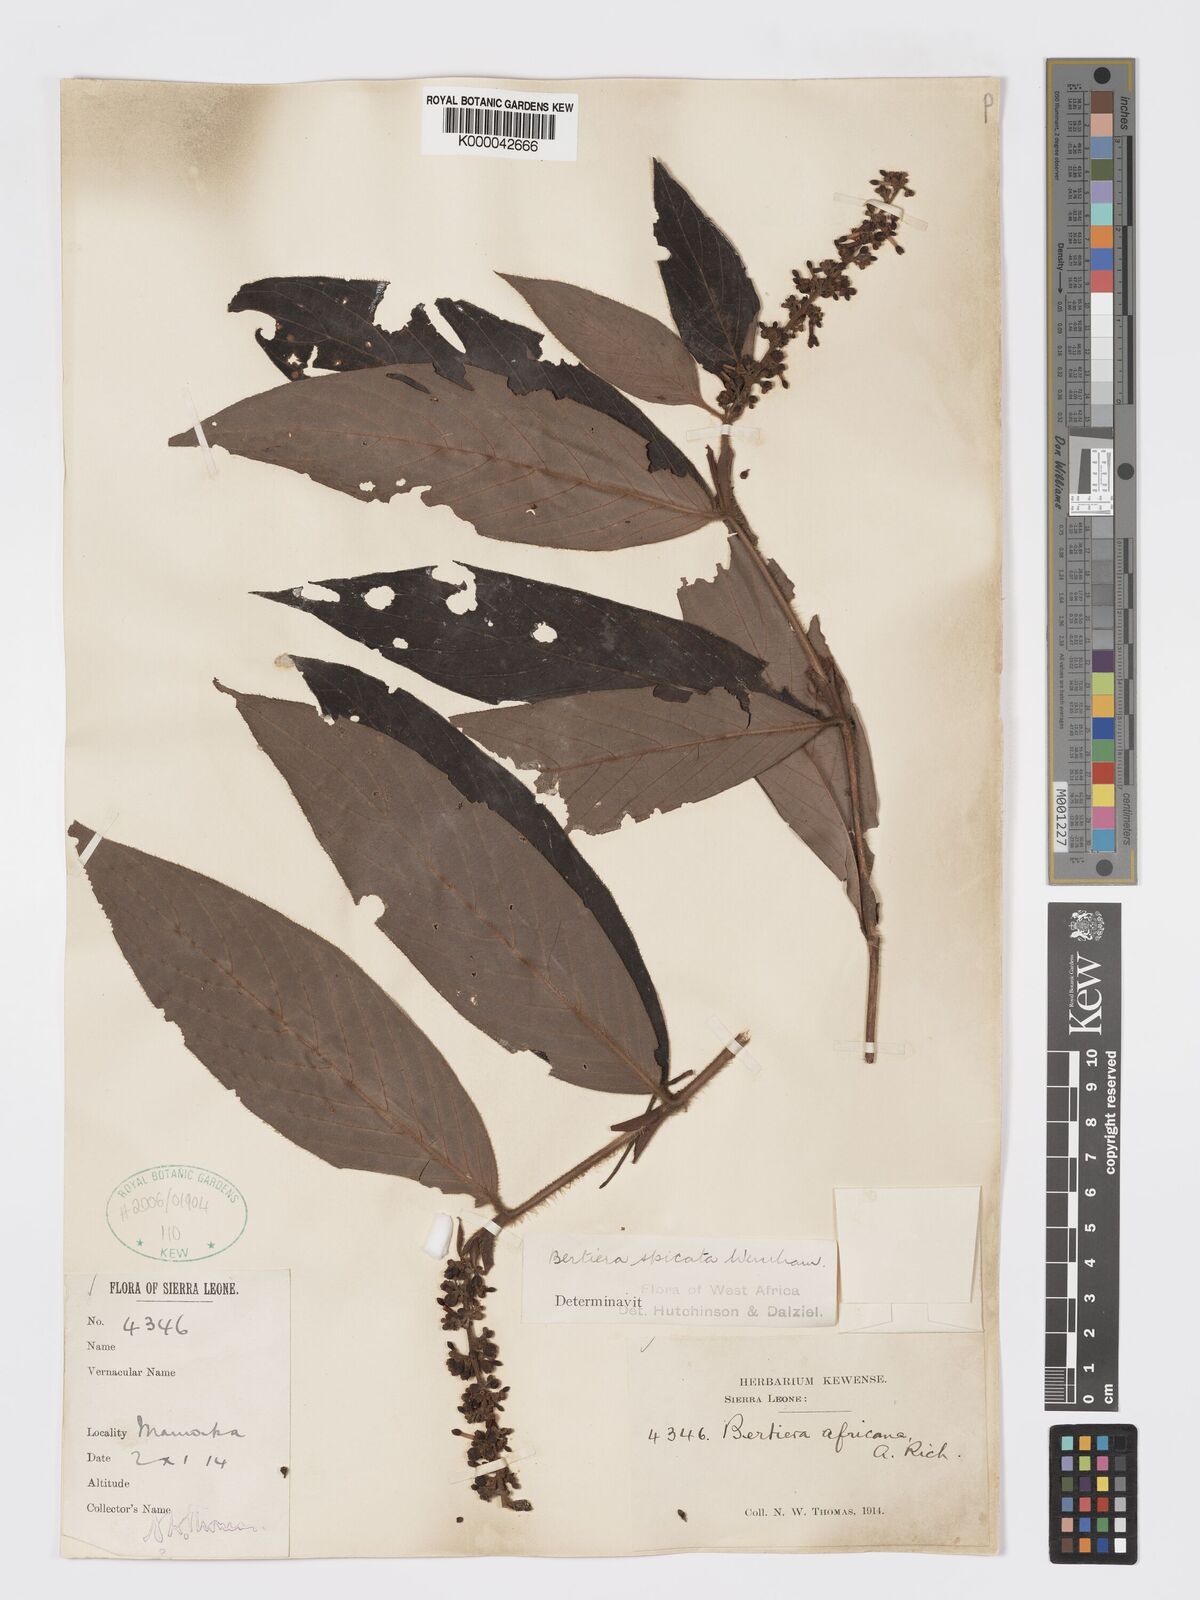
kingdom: Plantae
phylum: Tracheophyta
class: Magnoliopsida
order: Gentianales
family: Rubiaceae
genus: Bertiera
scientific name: Bertiera
